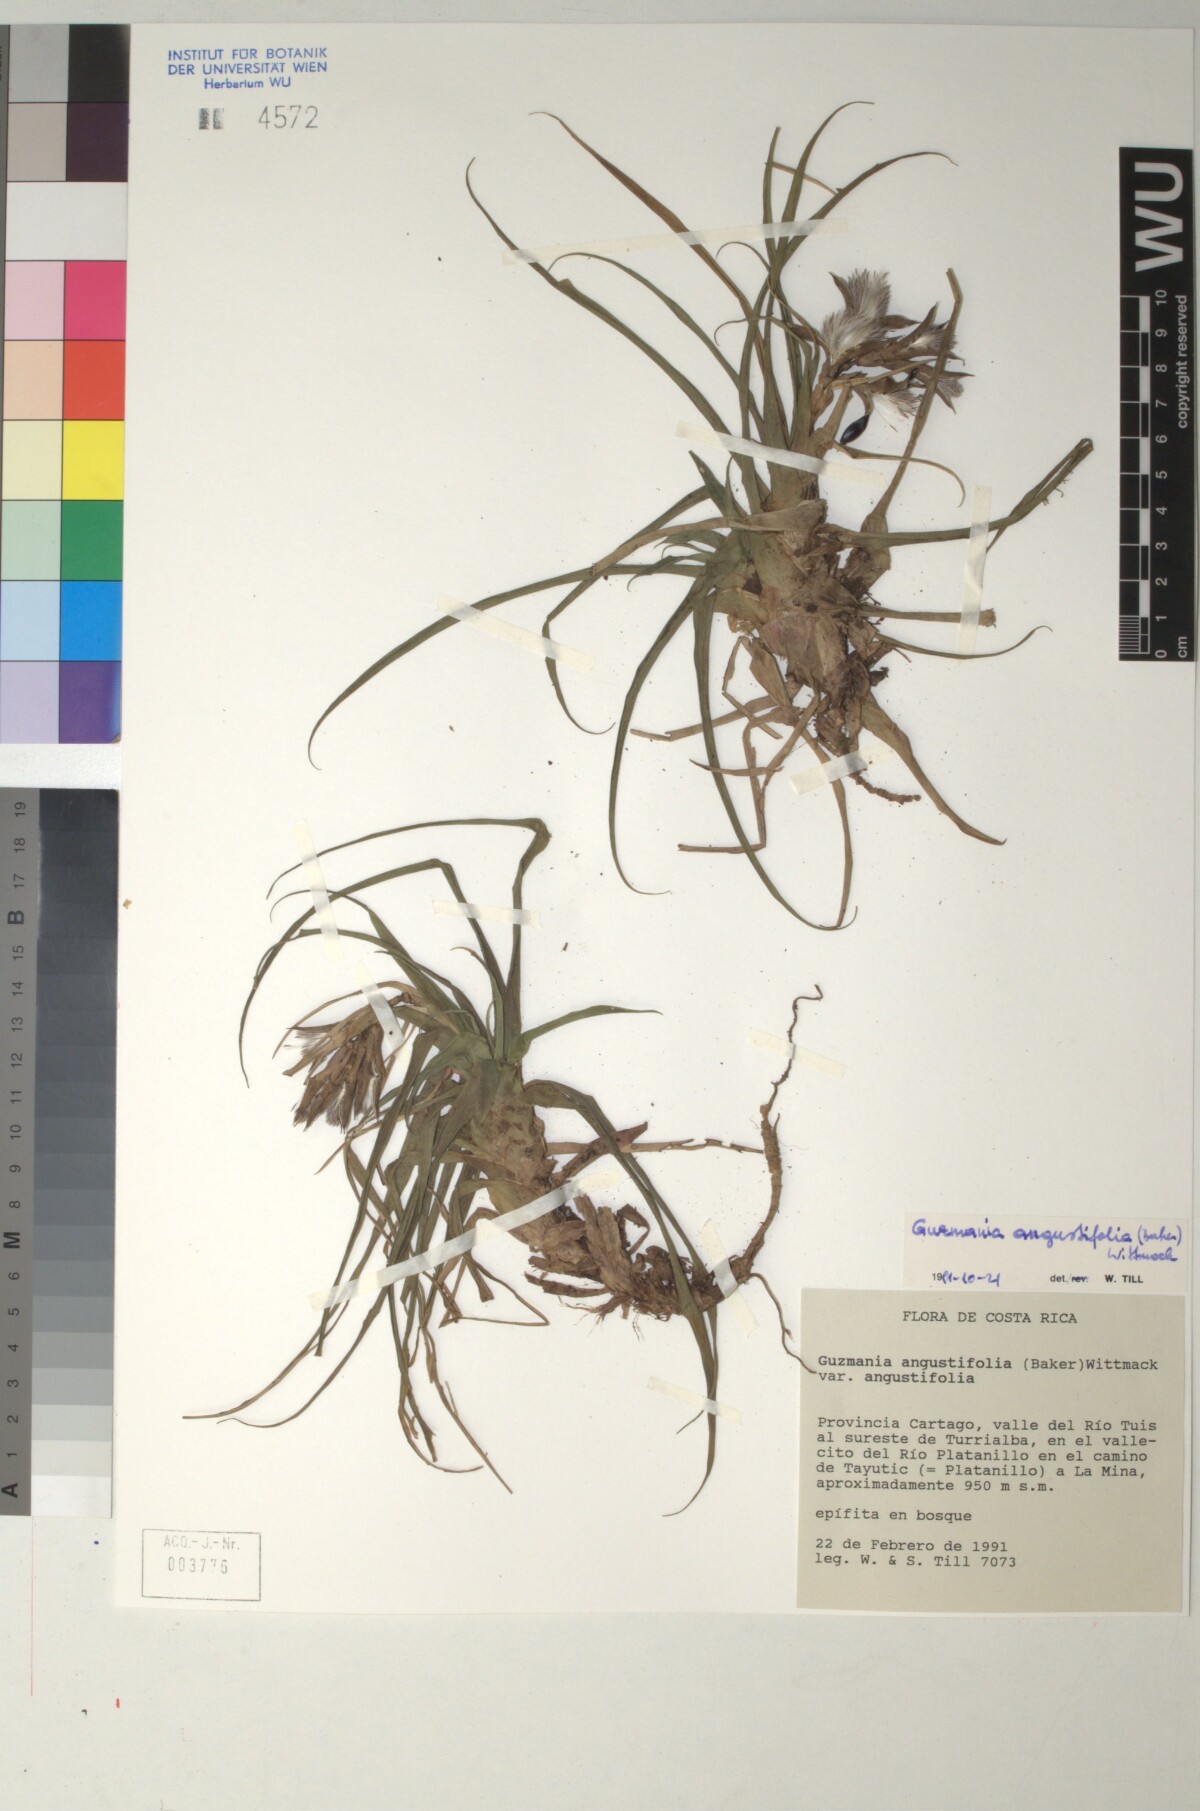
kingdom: Plantae
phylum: Tracheophyta
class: Liliopsida
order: Poales
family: Bromeliaceae
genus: Guzmania
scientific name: Guzmania angustifolia
